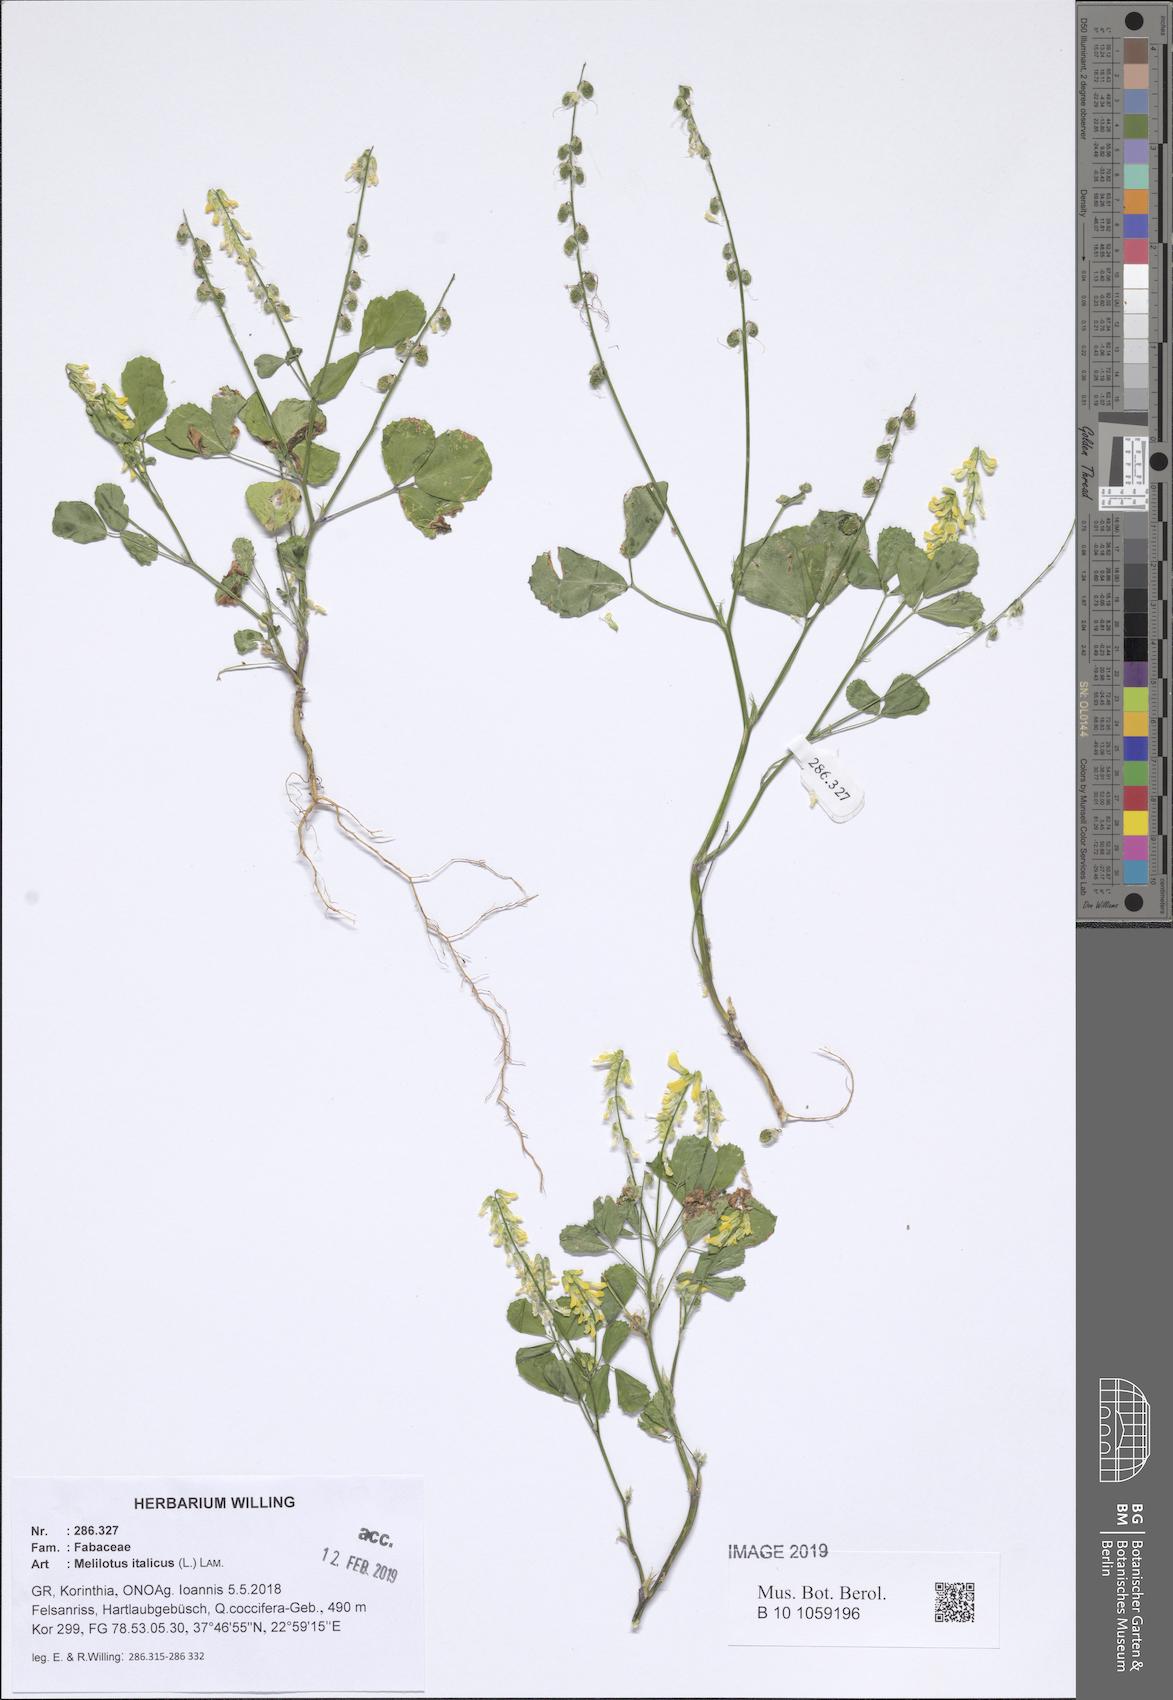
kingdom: Plantae
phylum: Tracheophyta
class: Magnoliopsida
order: Fabales
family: Fabaceae
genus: Melilotus
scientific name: Melilotus italicus
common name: Italian melilot
